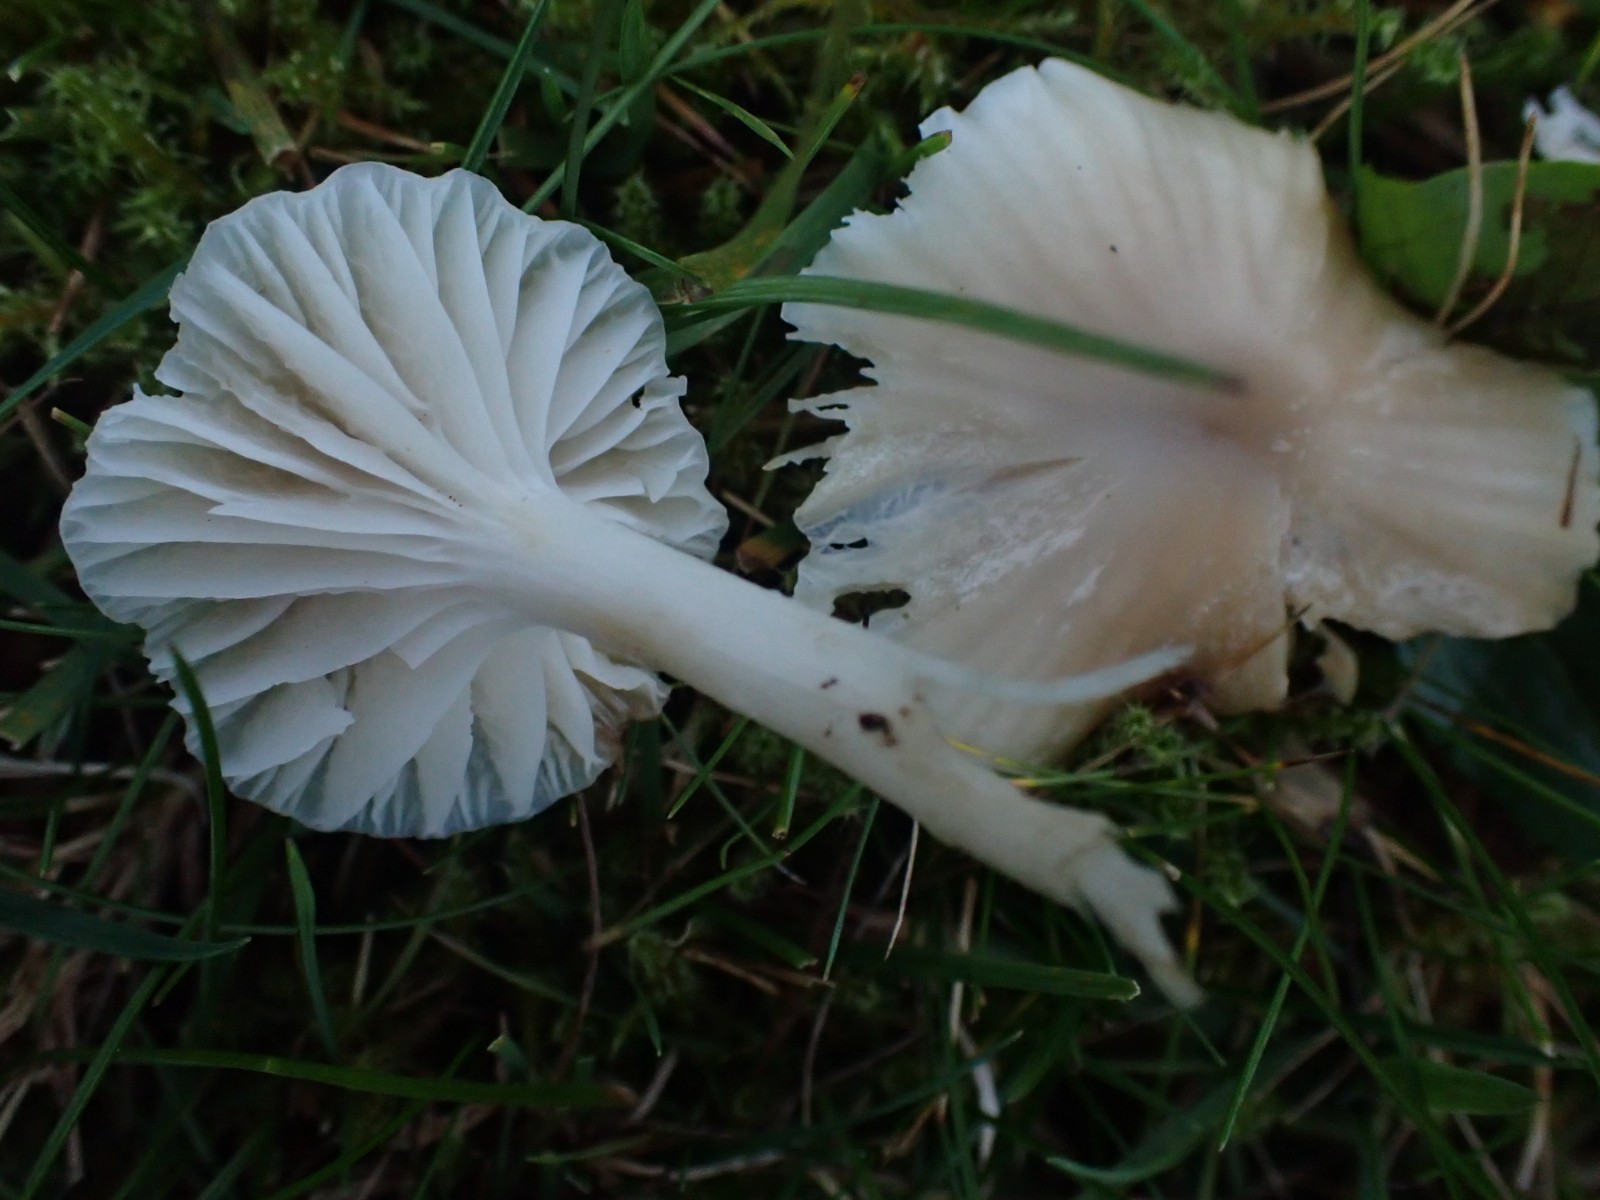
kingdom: Fungi
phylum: Basidiomycota
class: Agaricomycetes
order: Agaricales
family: Hygrophoraceae
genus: Cuphophyllus
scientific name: Cuphophyllus virgineus
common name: snehvid vokshat
